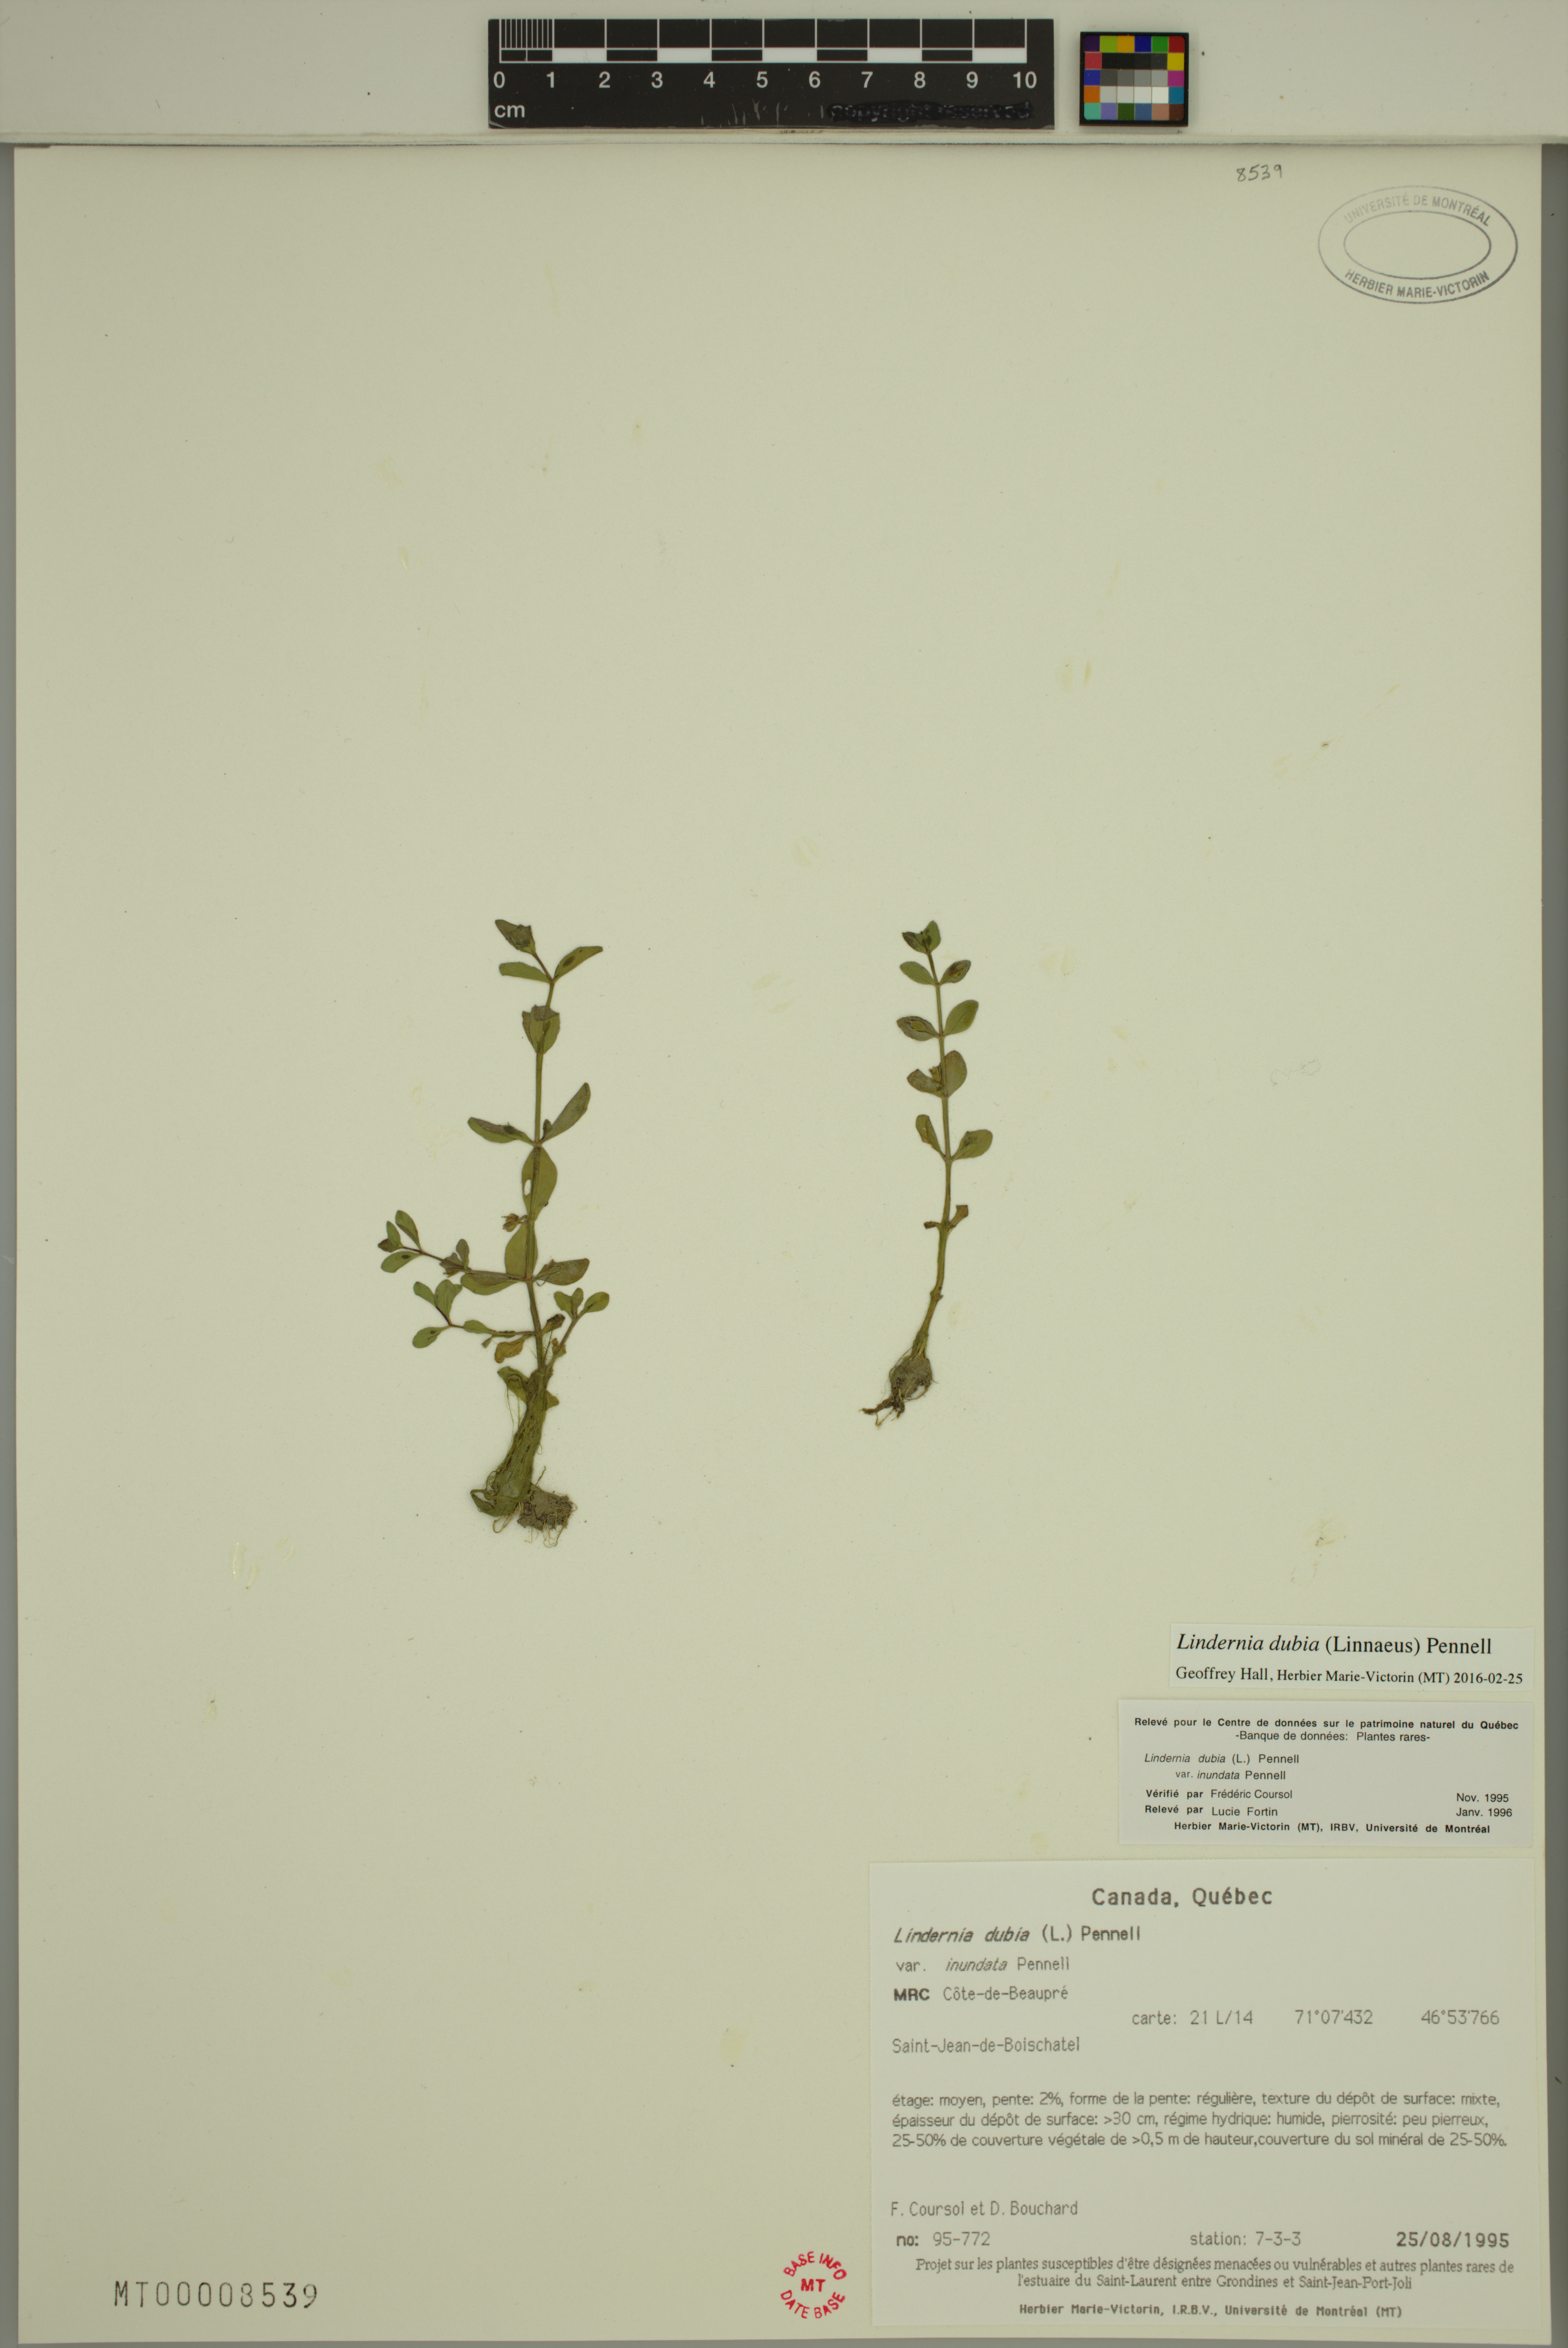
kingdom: Plantae
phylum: Tracheophyta
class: Magnoliopsida
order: Lamiales
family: Linderniaceae
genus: Lindernia
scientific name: Lindernia dubia
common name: Annual false pimpernel
